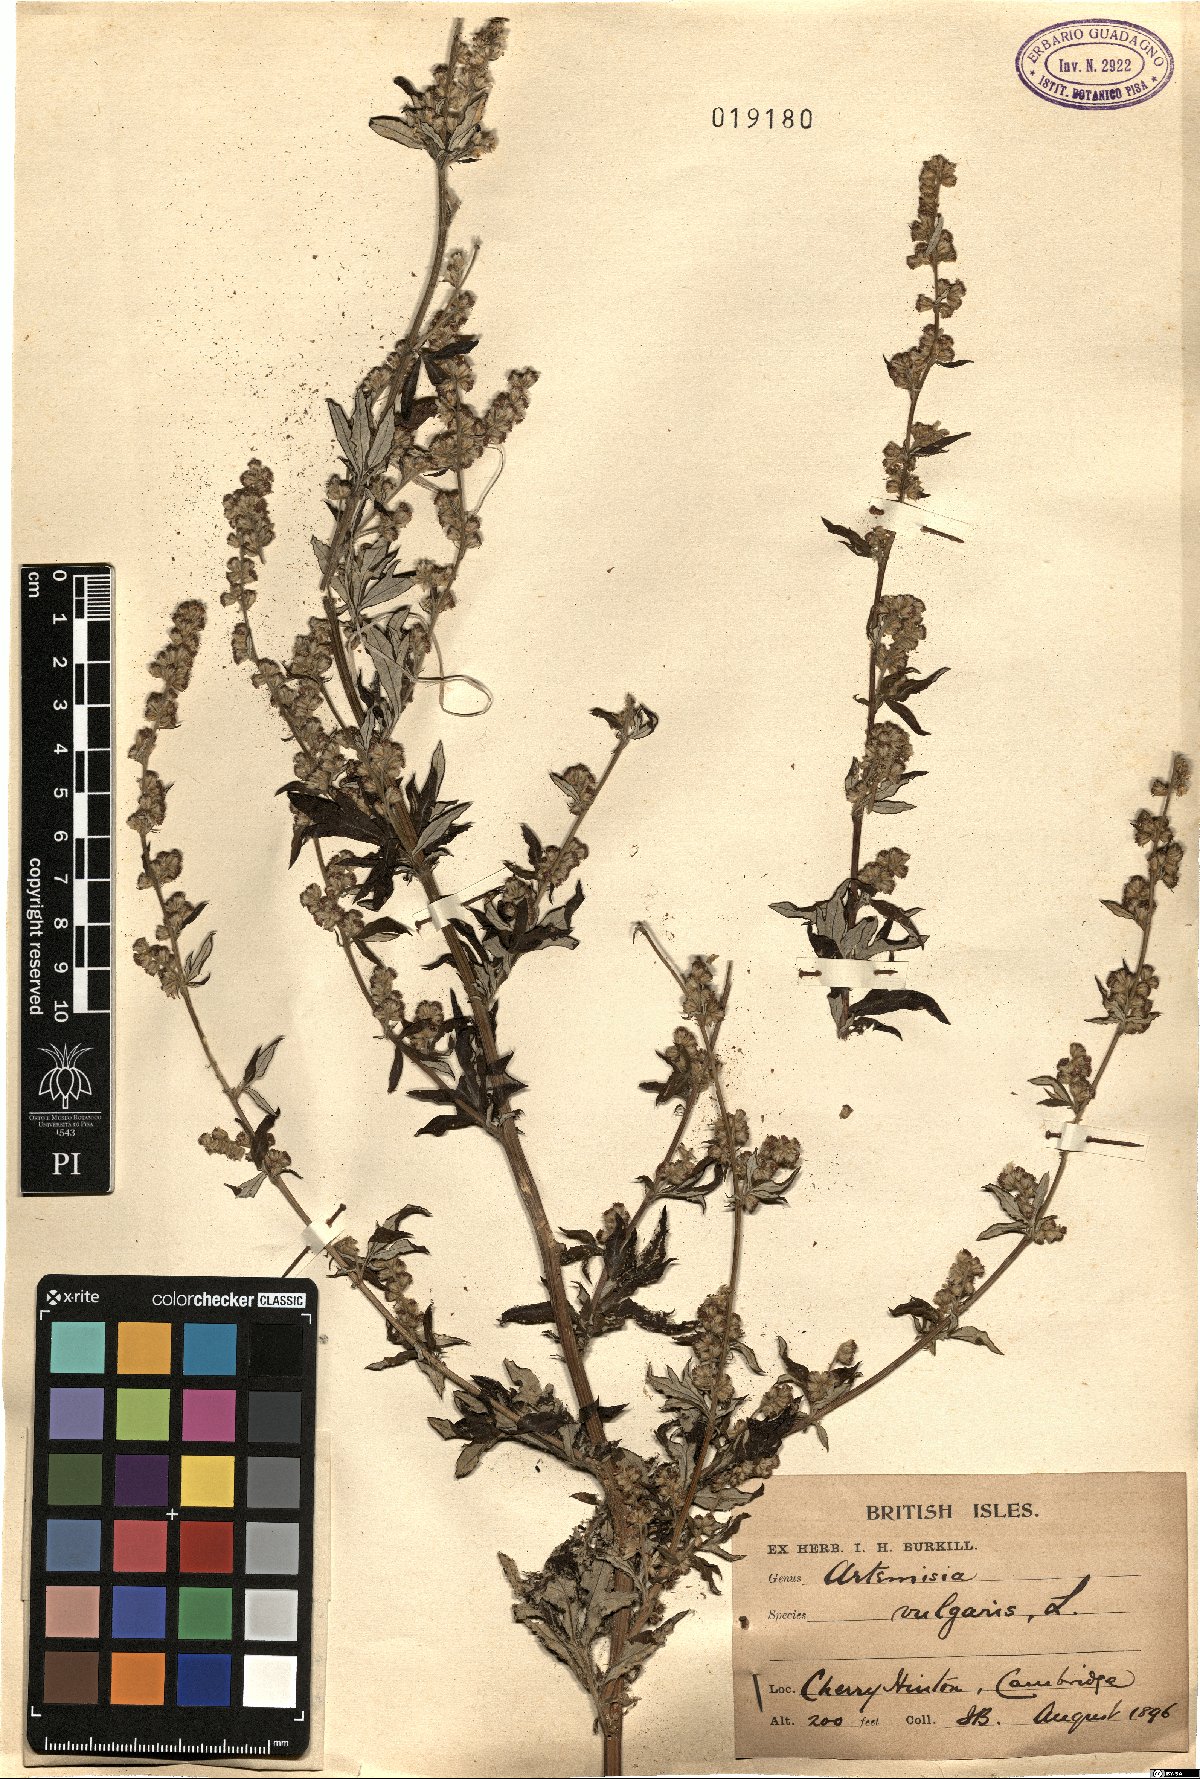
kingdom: Plantae
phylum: Tracheophyta
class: Magnoliopsida
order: Asterales
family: Asteraceae
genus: Artemisia
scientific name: Artemisia vulgaris
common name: Mugwort
